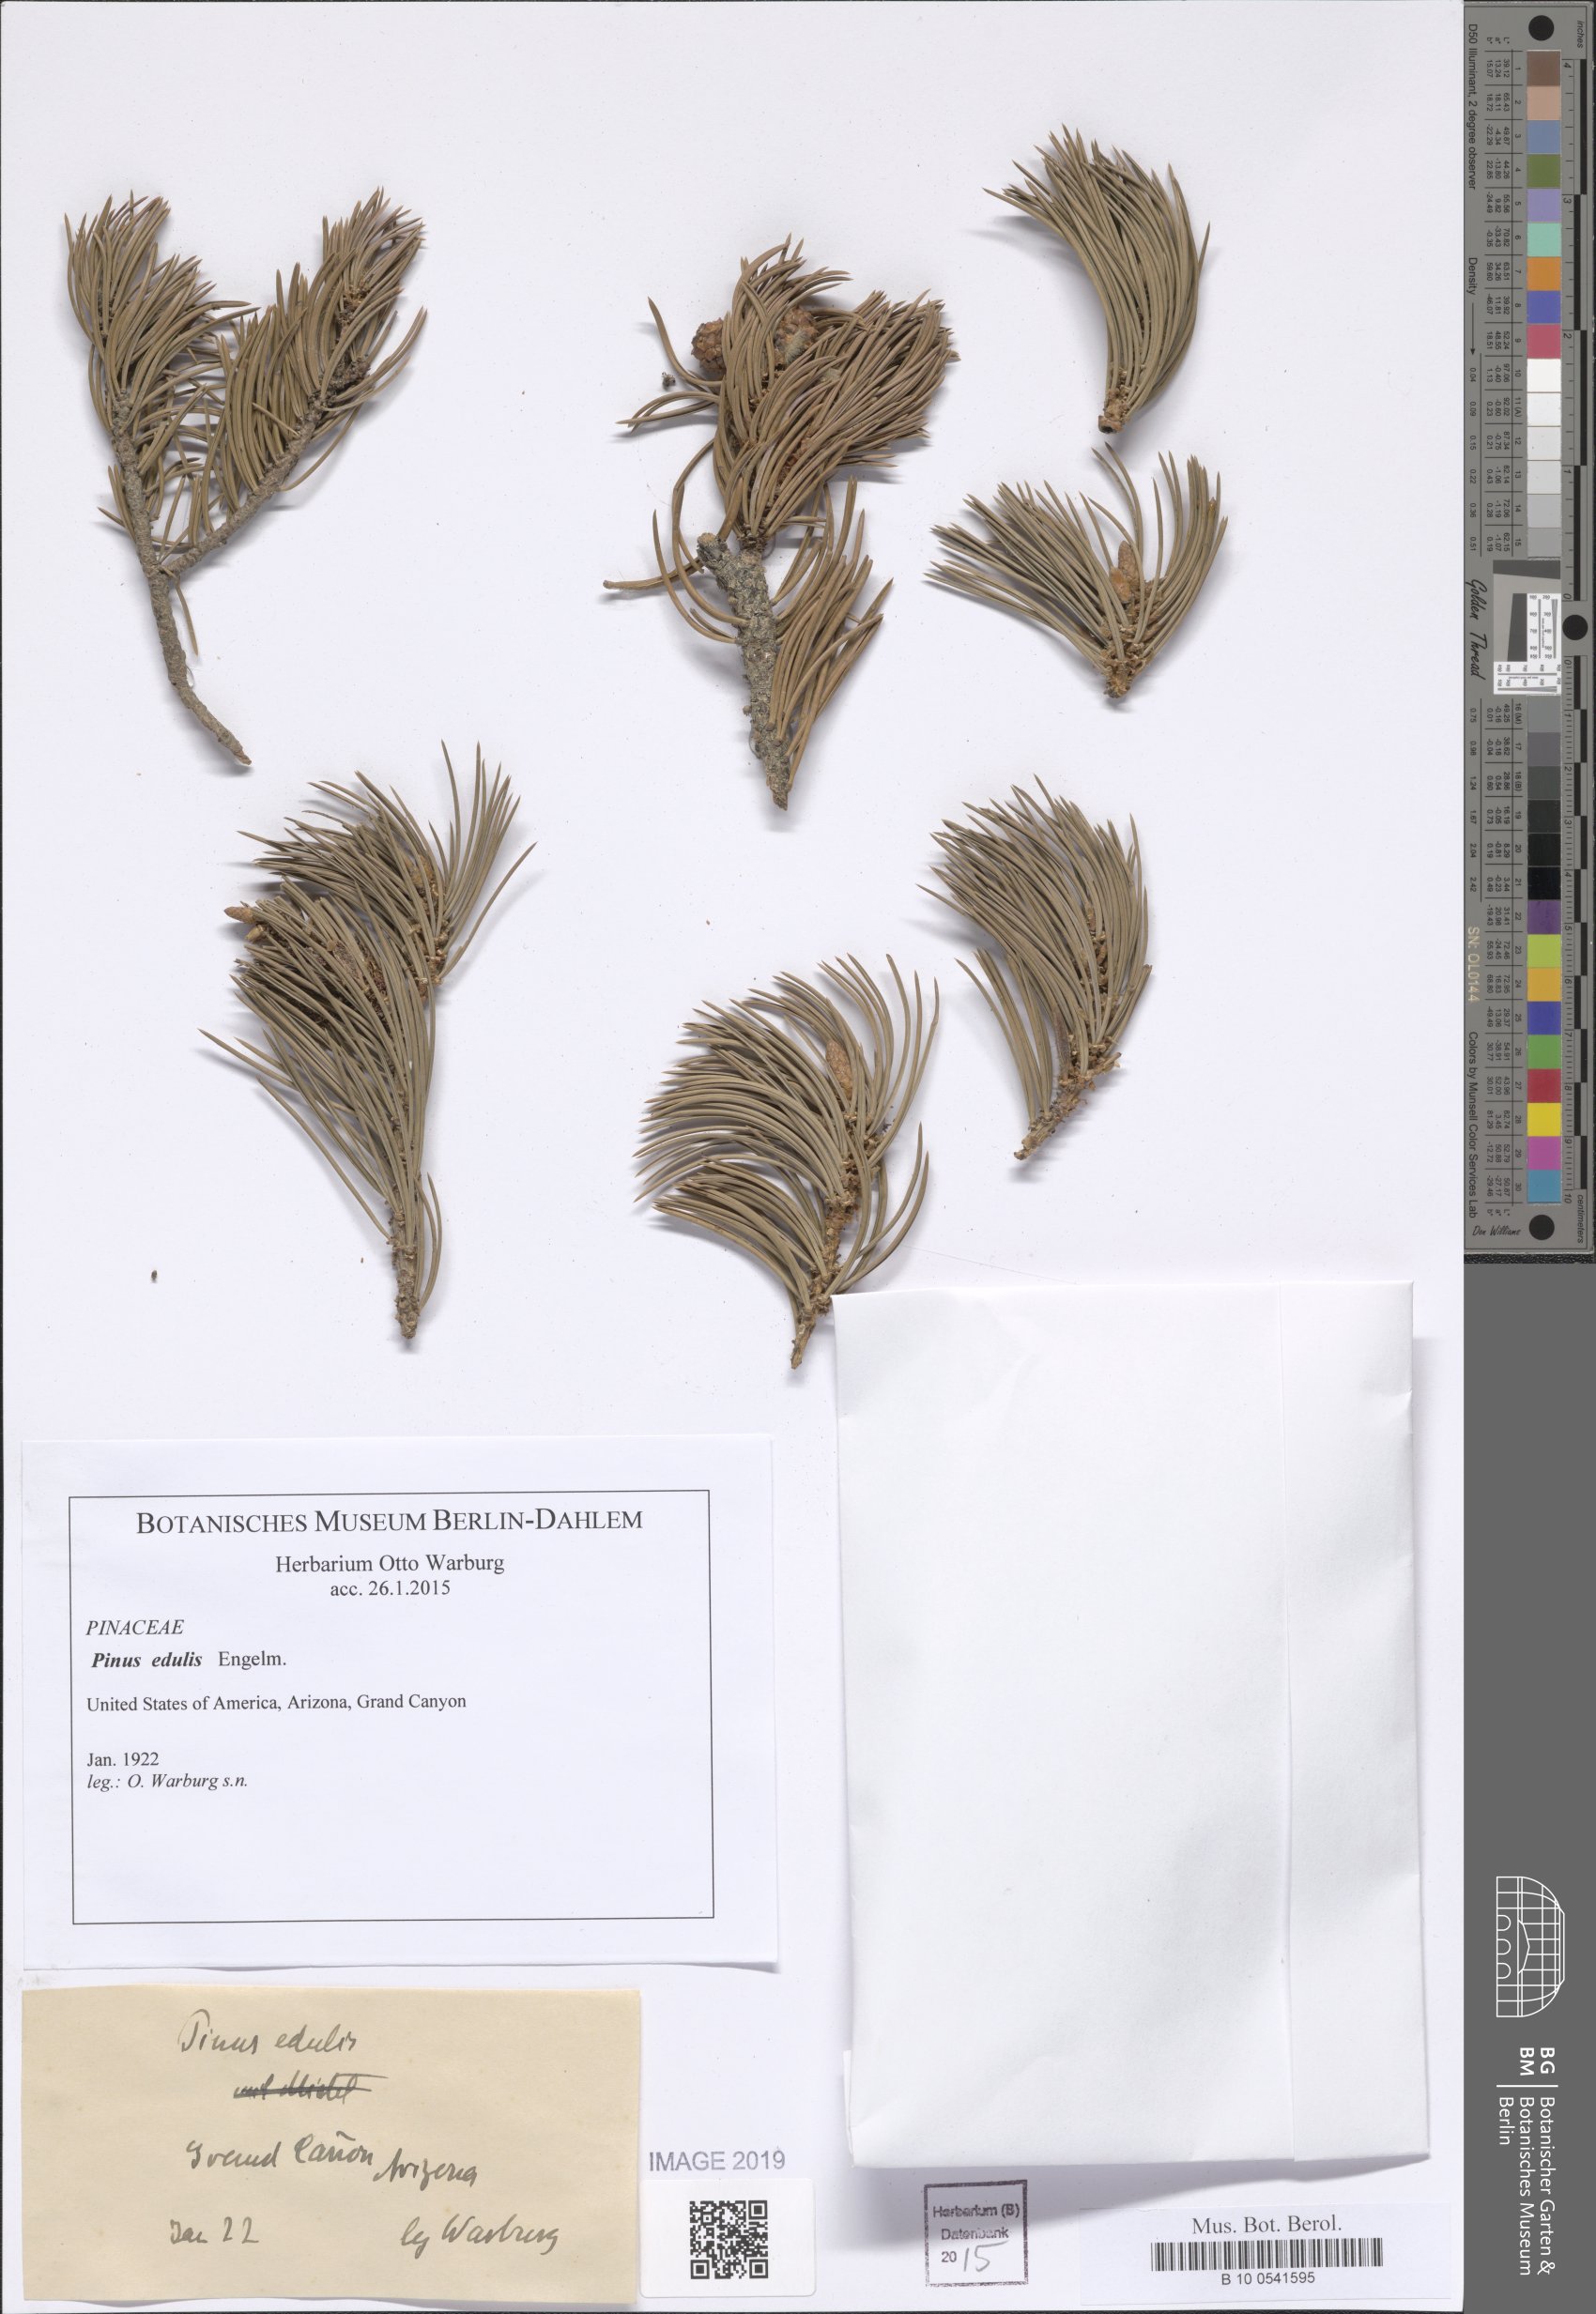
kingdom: Plantae
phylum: Tracheophyta
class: Pinopsida
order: Pinales
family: Pinaceae
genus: Pinus
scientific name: Pinus edulis
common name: Colorado pinyon
